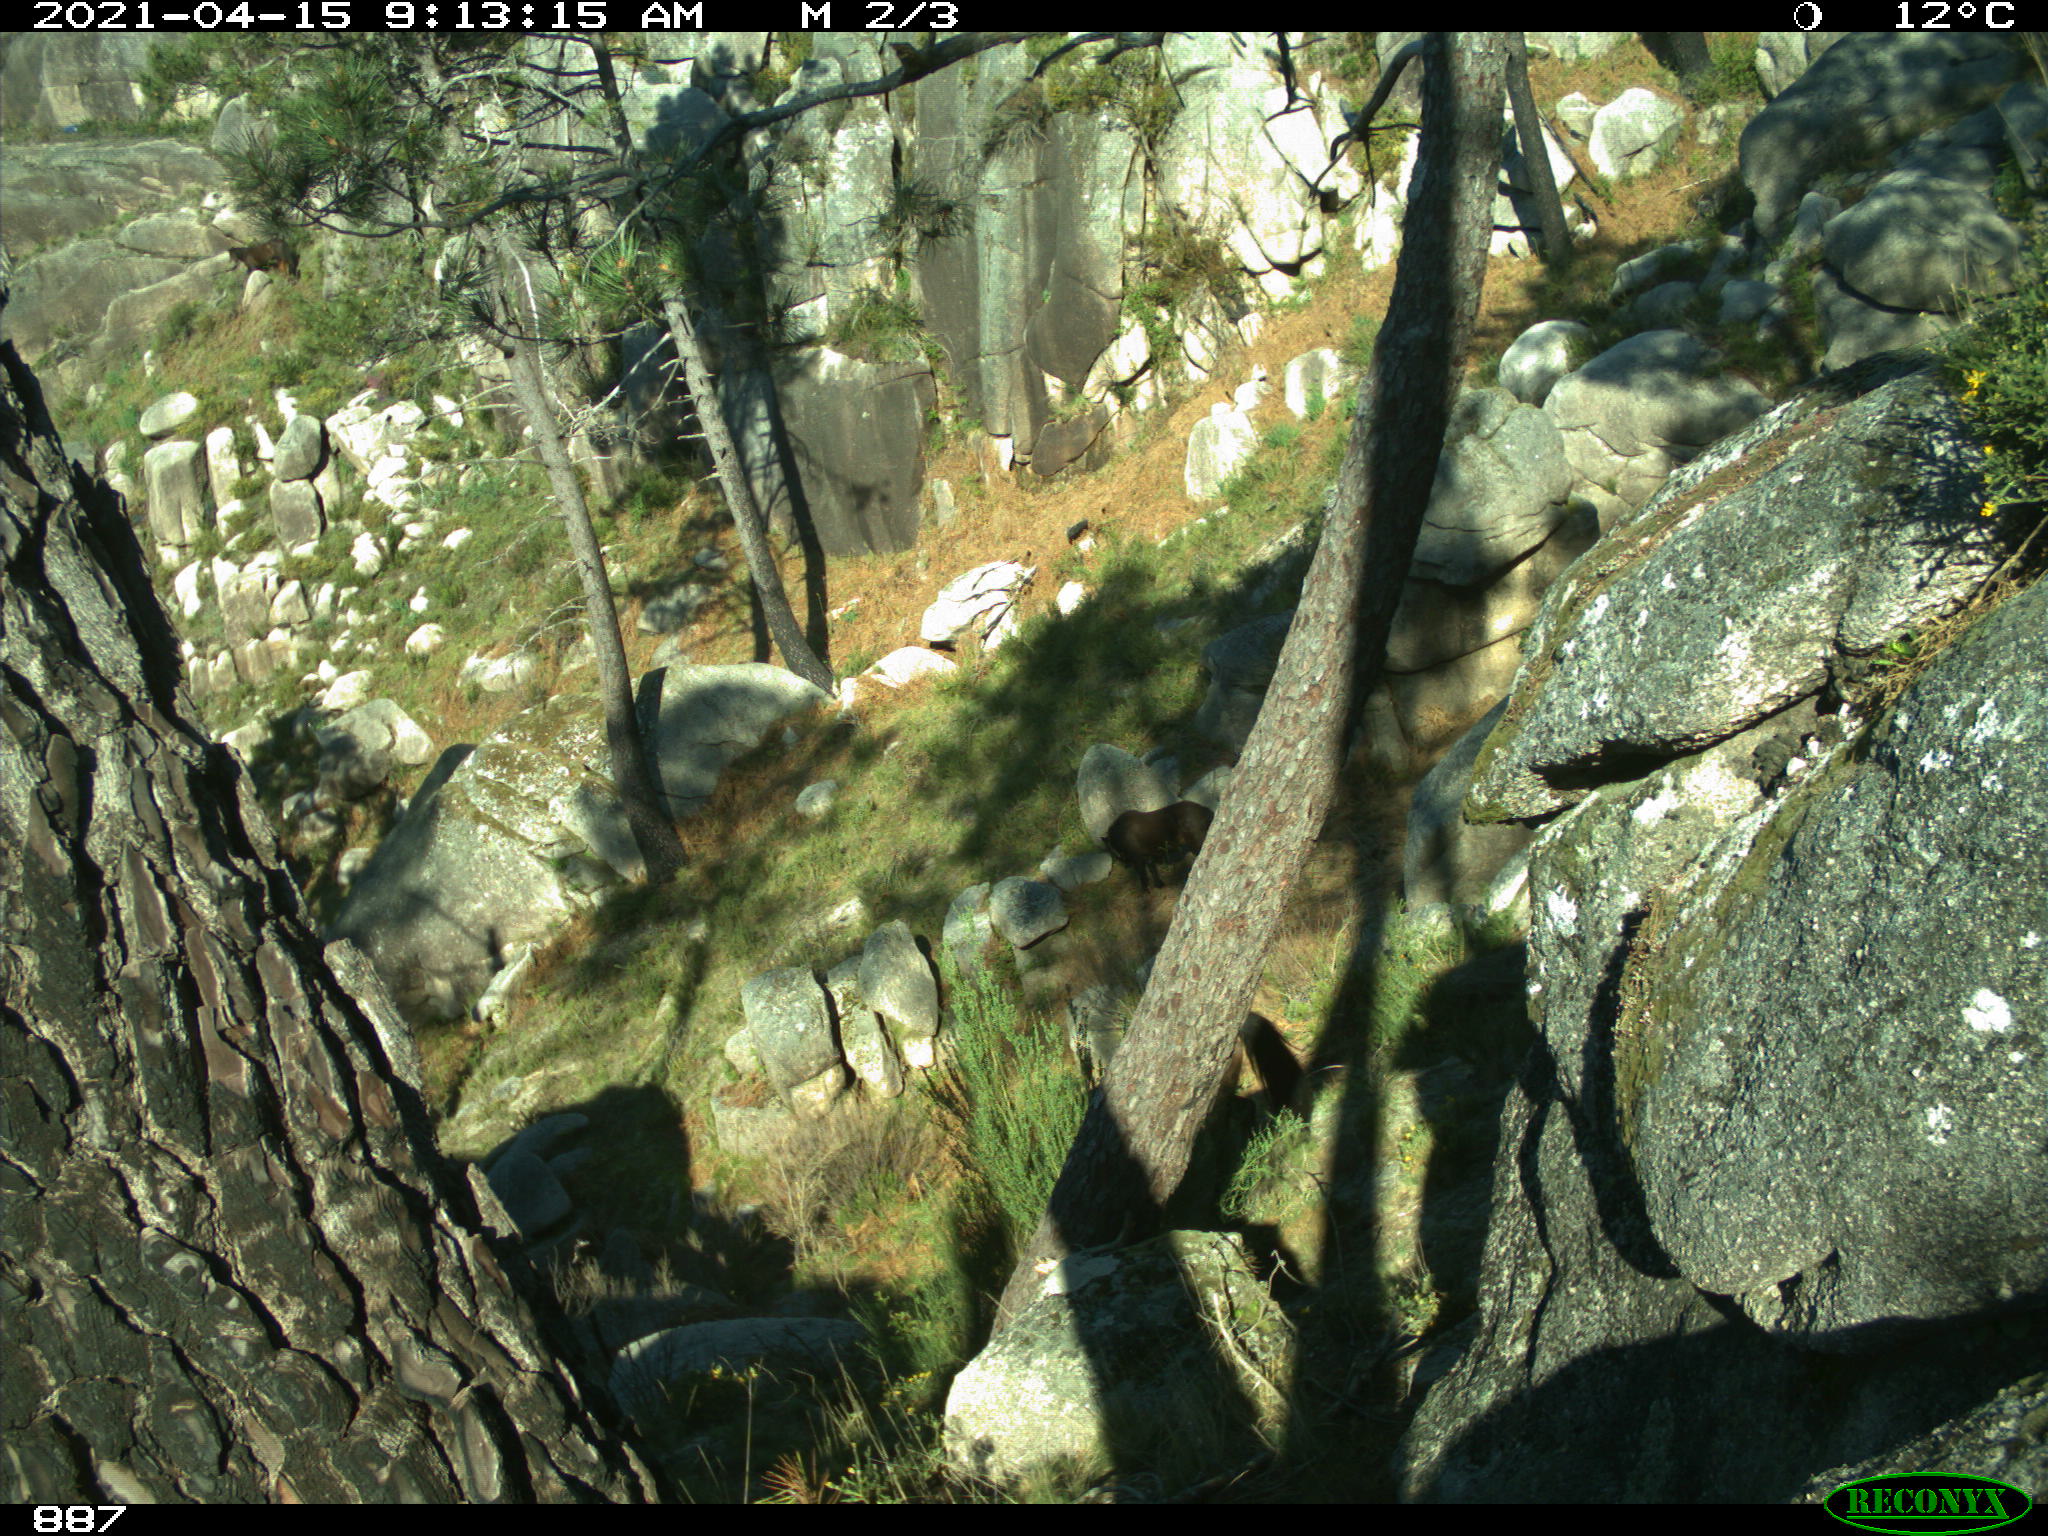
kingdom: Animalia
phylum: Chordata
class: Mammalia
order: Perissodactyla
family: Equidae
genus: Equus
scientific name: Equus caballus
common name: Horse
